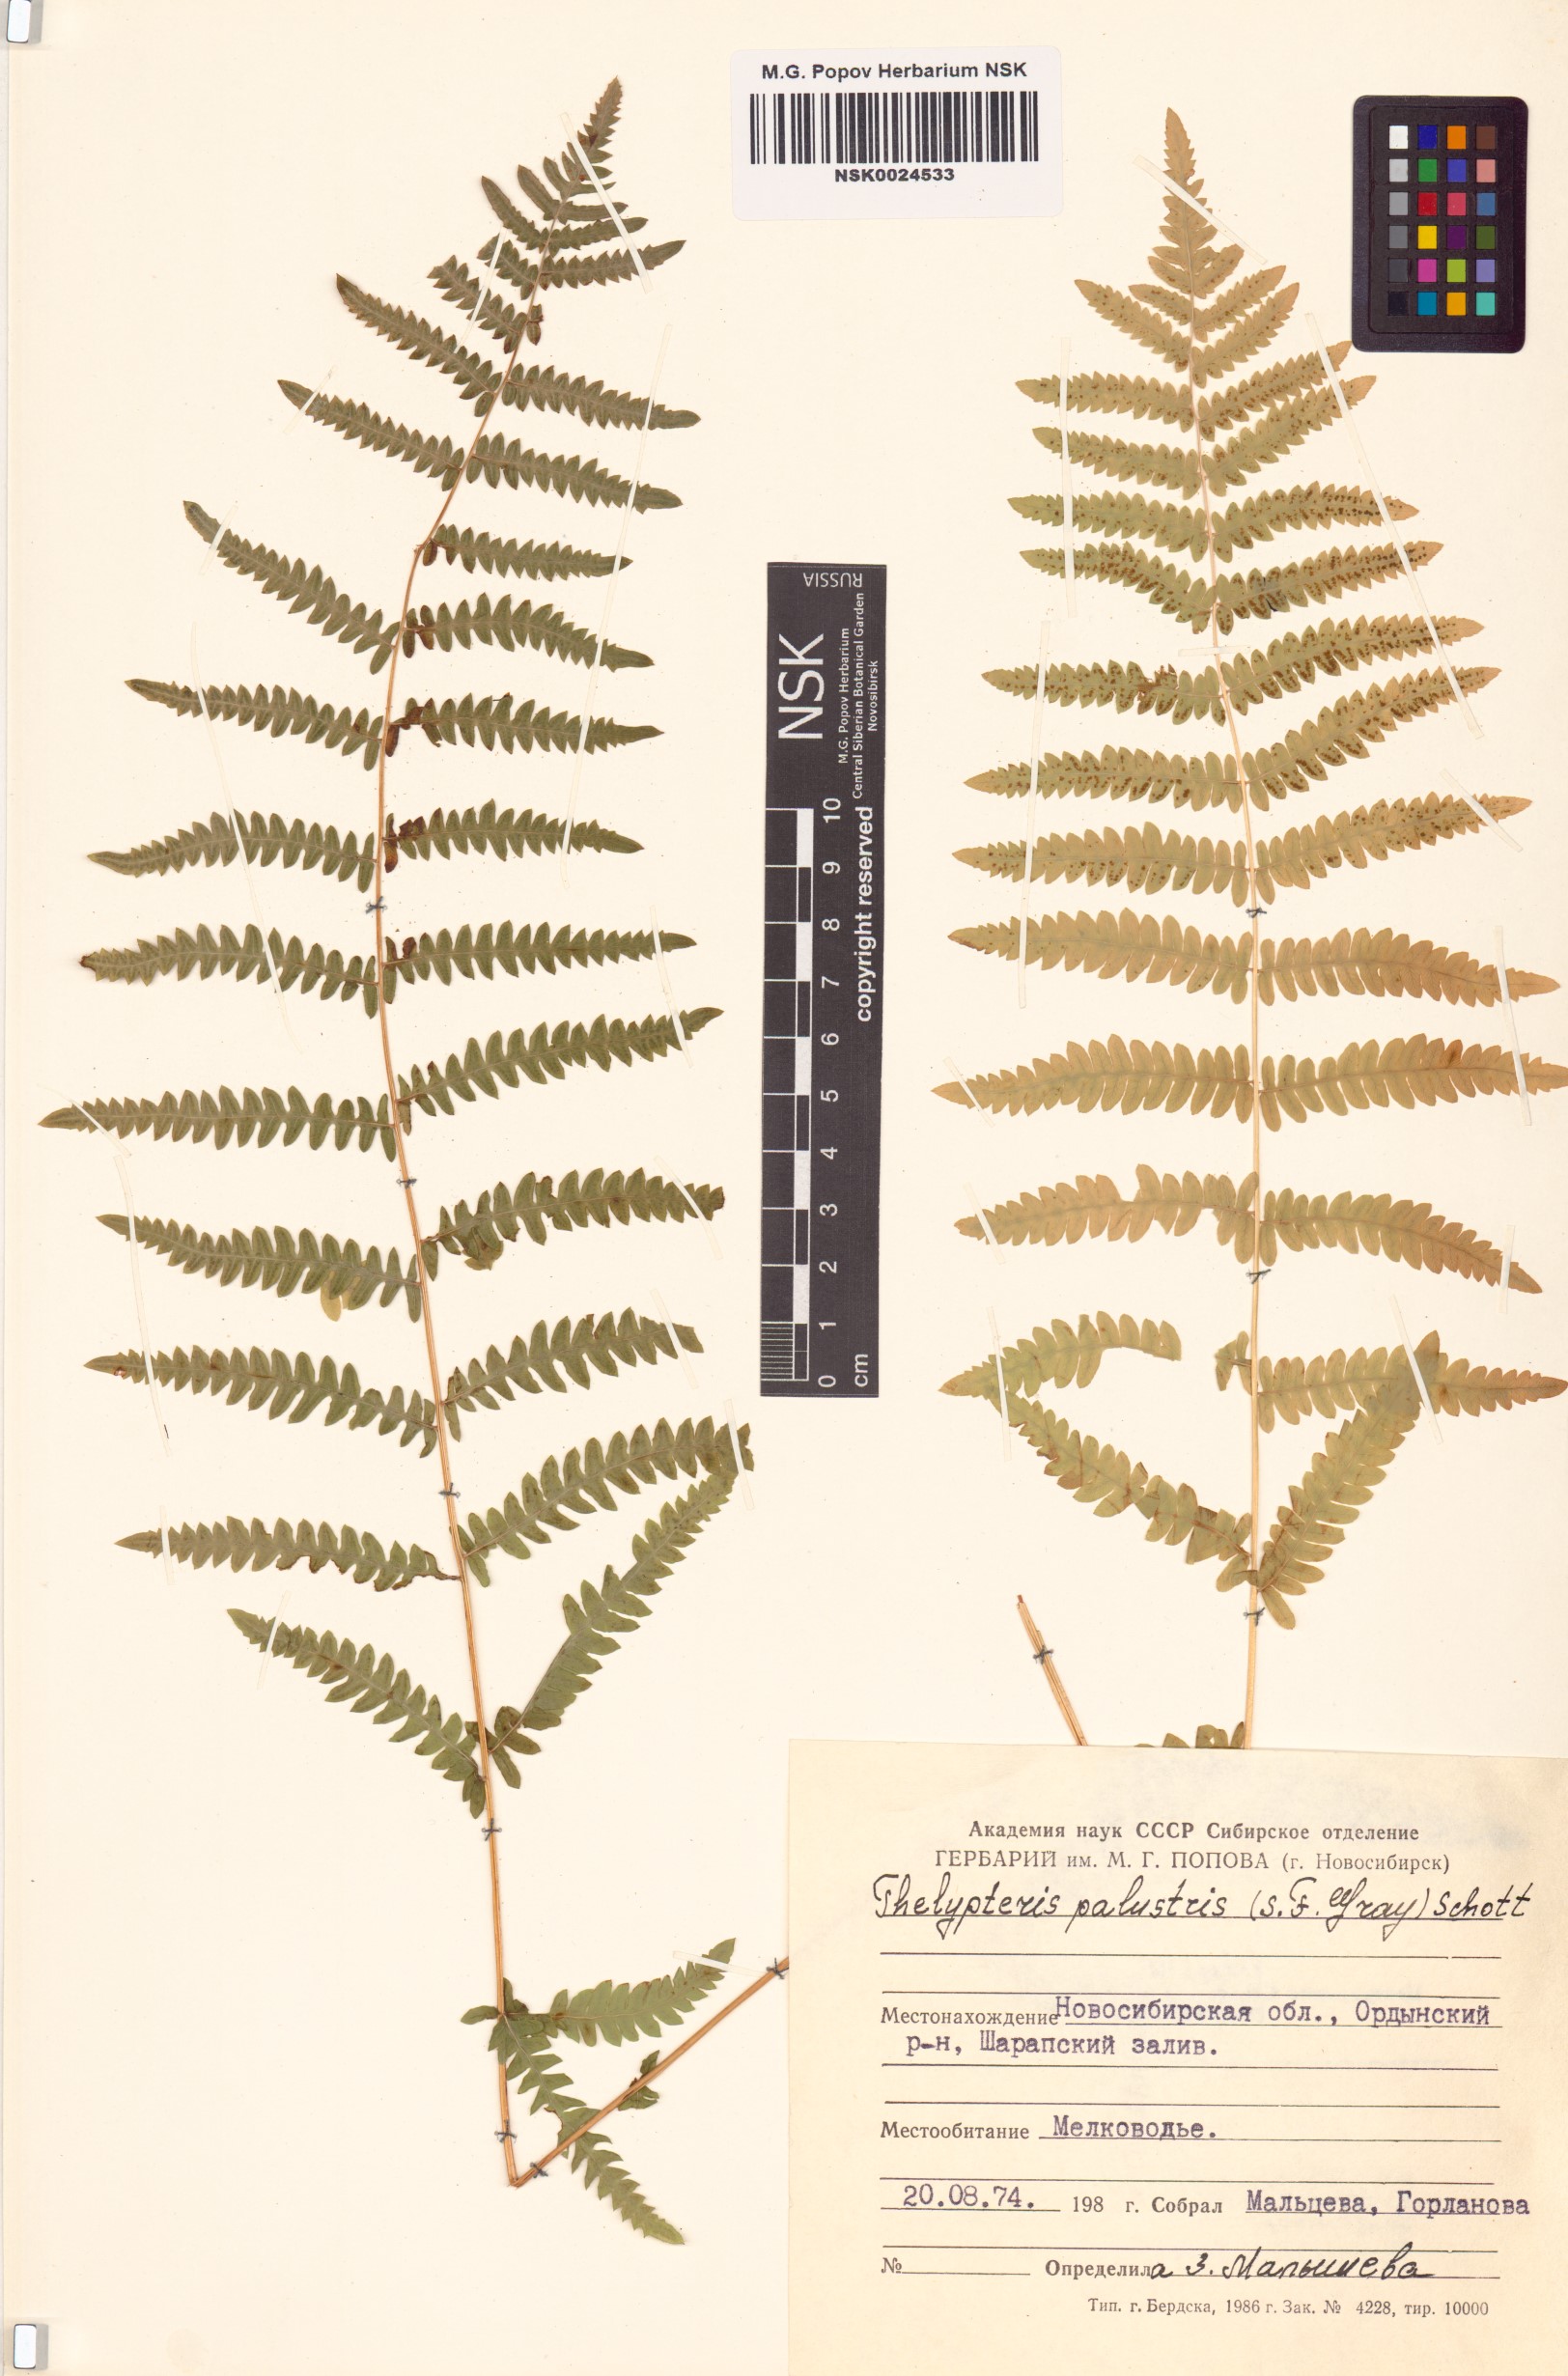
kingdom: Plantae
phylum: Tracheophyta
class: Polypodiopsida
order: Polypodiales
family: Thelypteridaceae
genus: Thelypteris
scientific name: Thelypteris palustris
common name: Marsh fern
